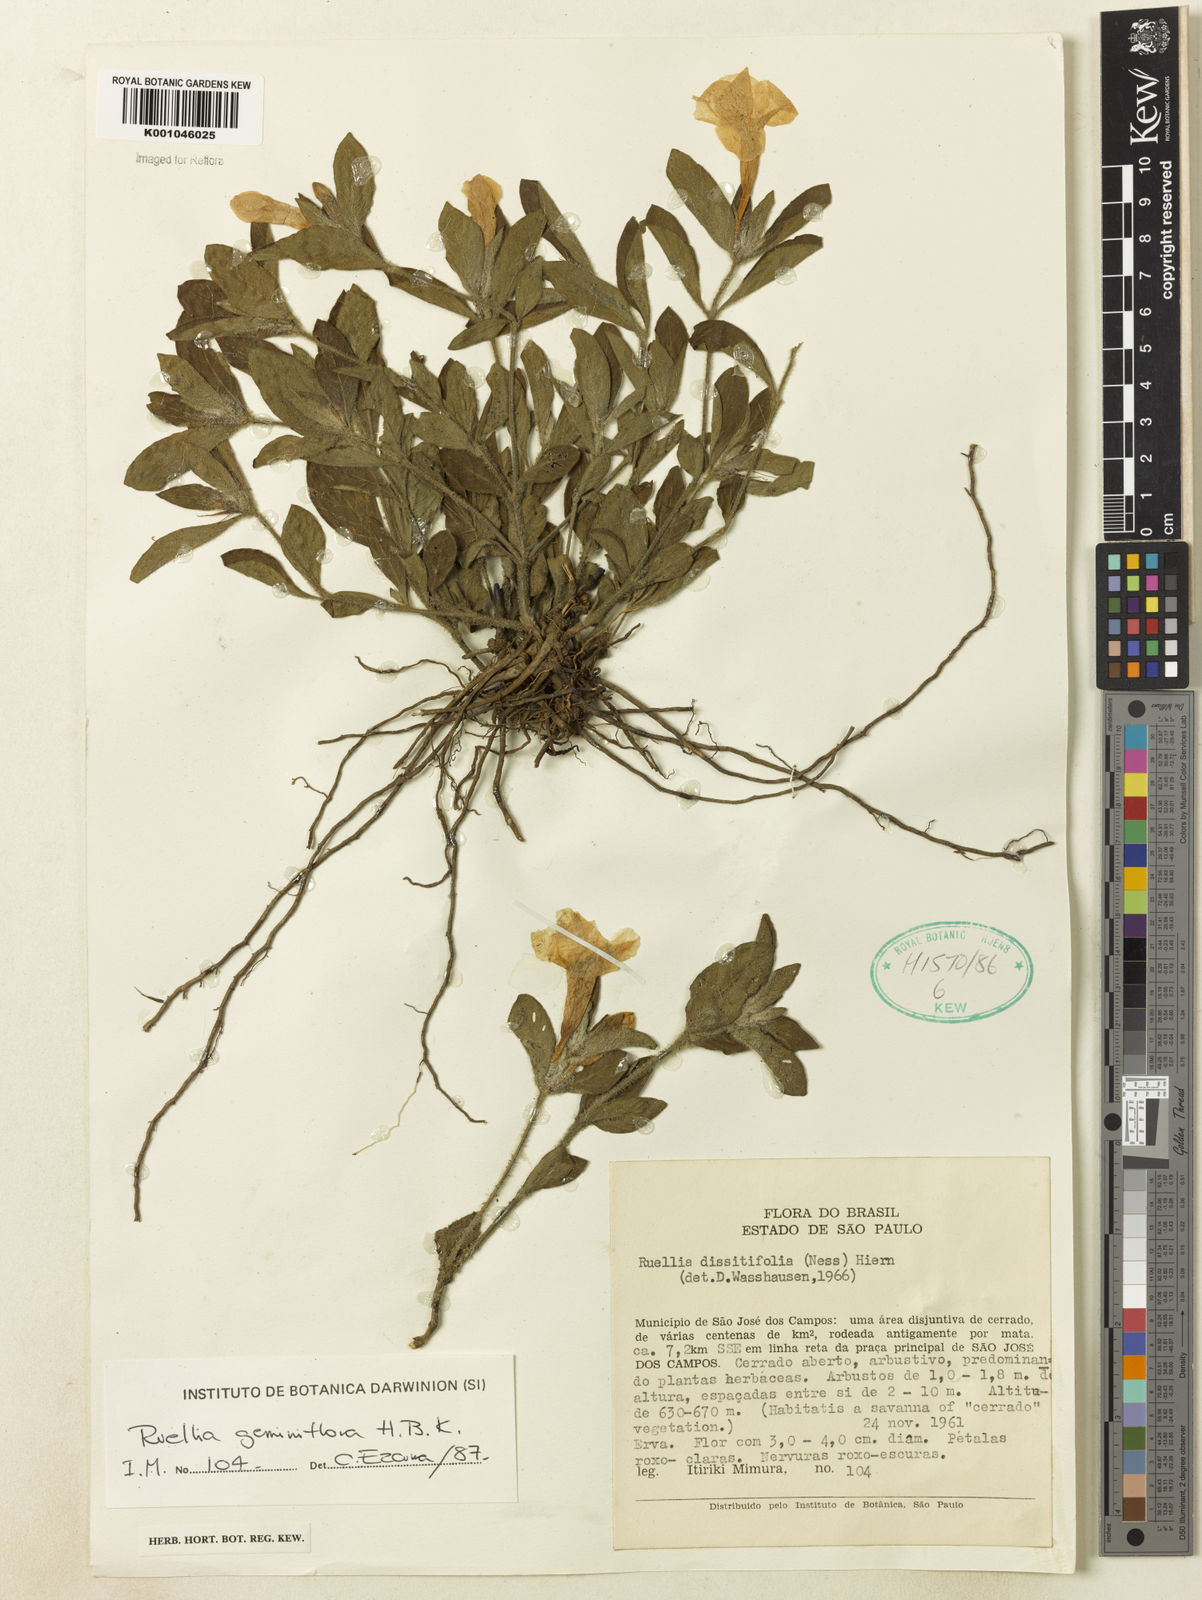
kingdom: Plantae
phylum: Tracheophyta
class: Magnoliopsida
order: Lamiales
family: Acanthaceae
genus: Ruellia
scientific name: Ruellia geminiflora
